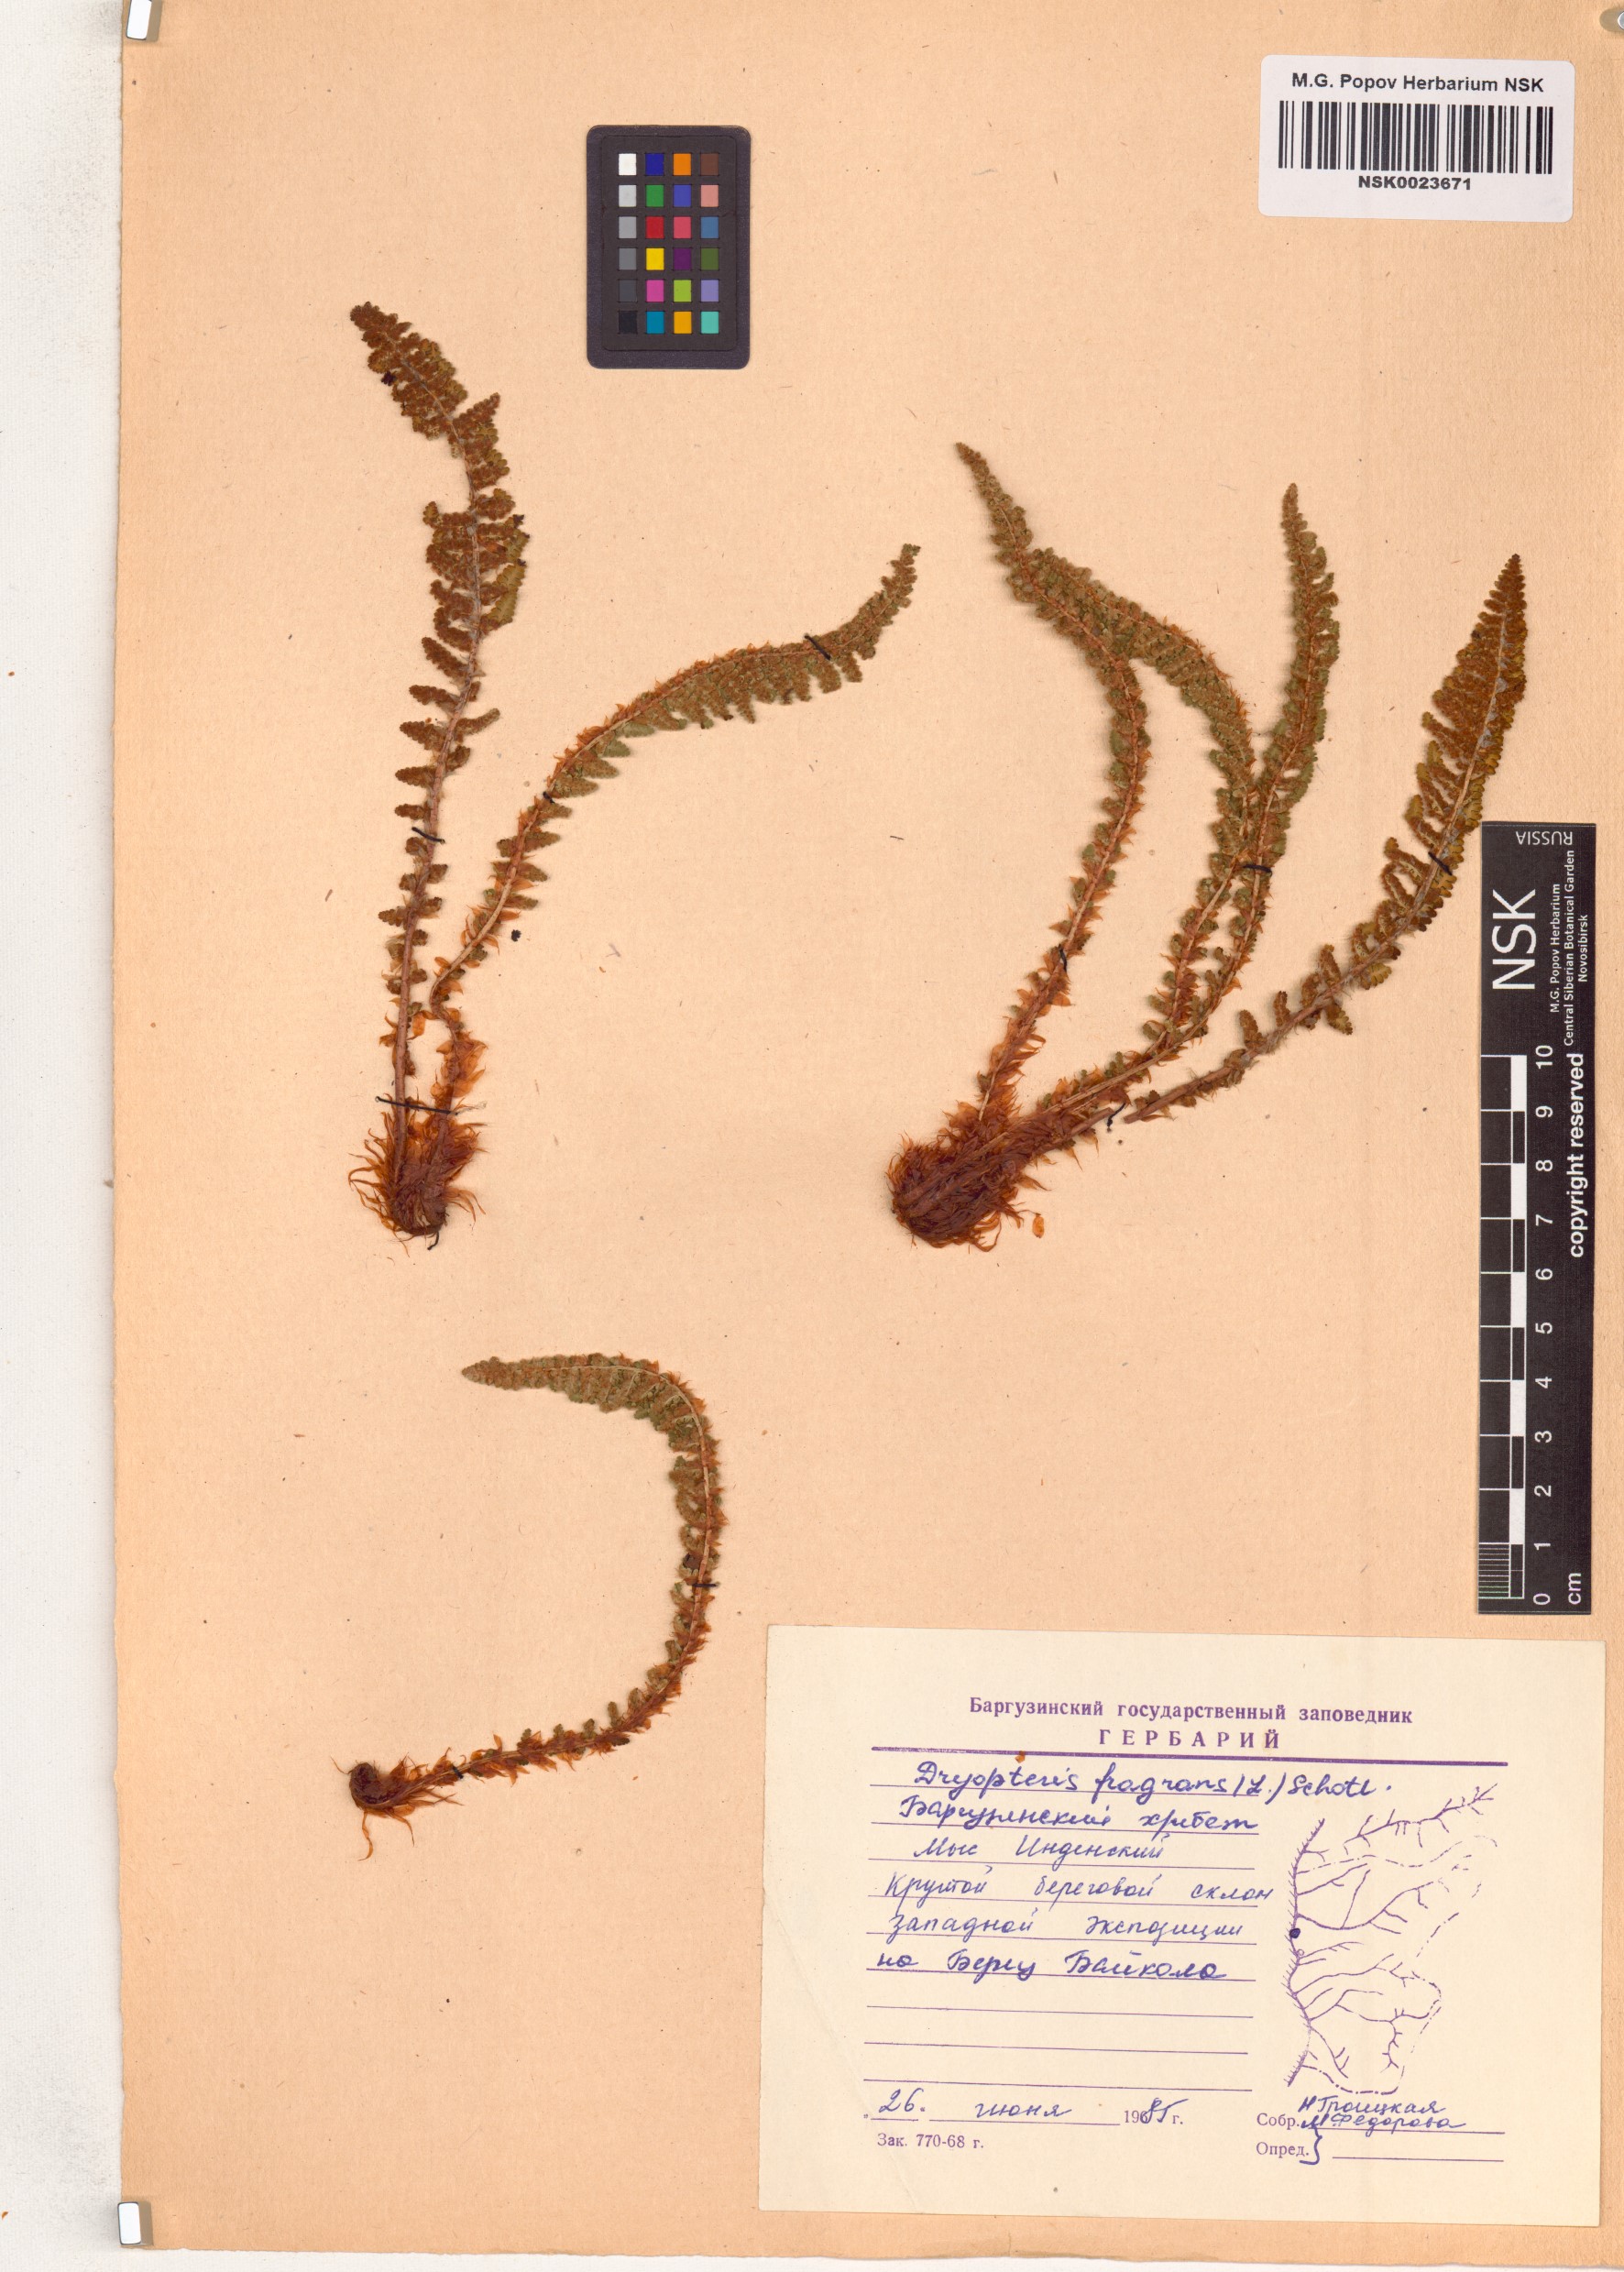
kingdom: Plantae
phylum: Tracheophyta
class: Polypodiopsida
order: Polypodiales
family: Dryopteridaceae
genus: Dryopteris
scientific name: Dryopteris fragrans
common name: Fragrant wood fern
